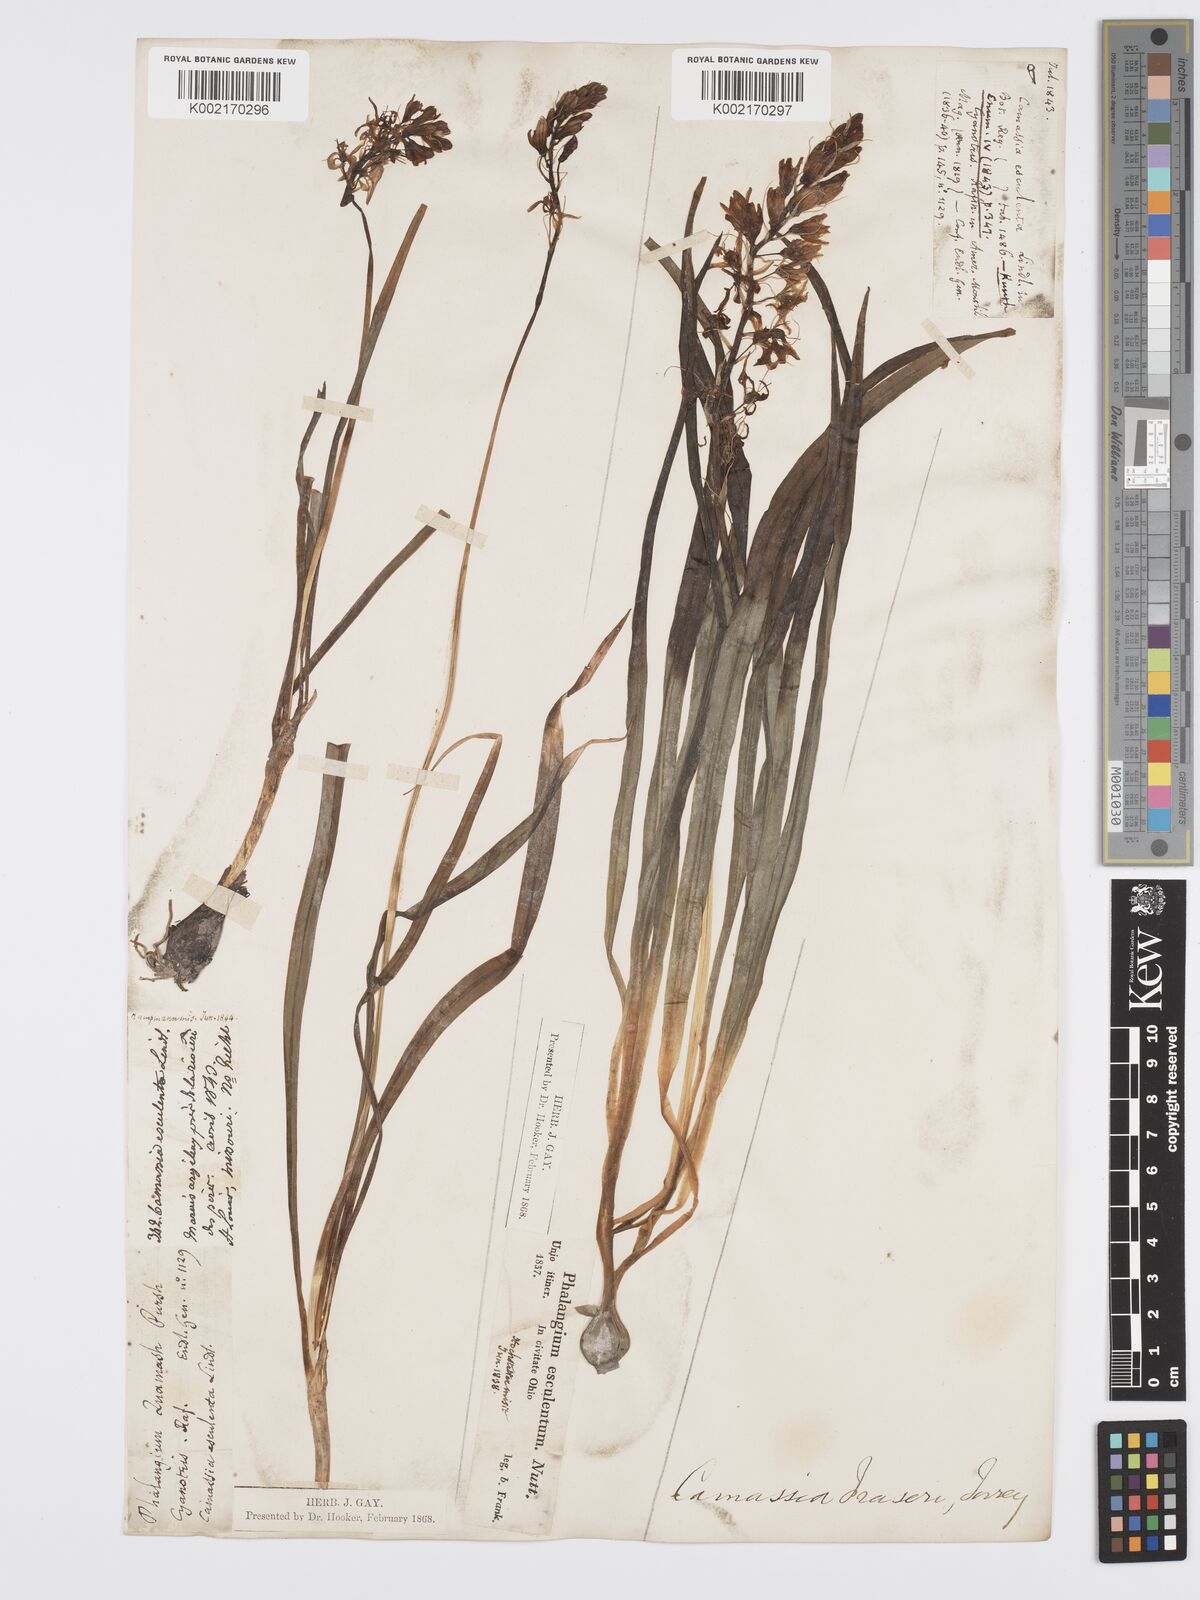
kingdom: Plantae
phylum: Tracheophyta
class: Liliopsida
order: Asparagales
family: Asparagaceae
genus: Camassia
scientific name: Camassia scilloides
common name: Wild hyacinth
